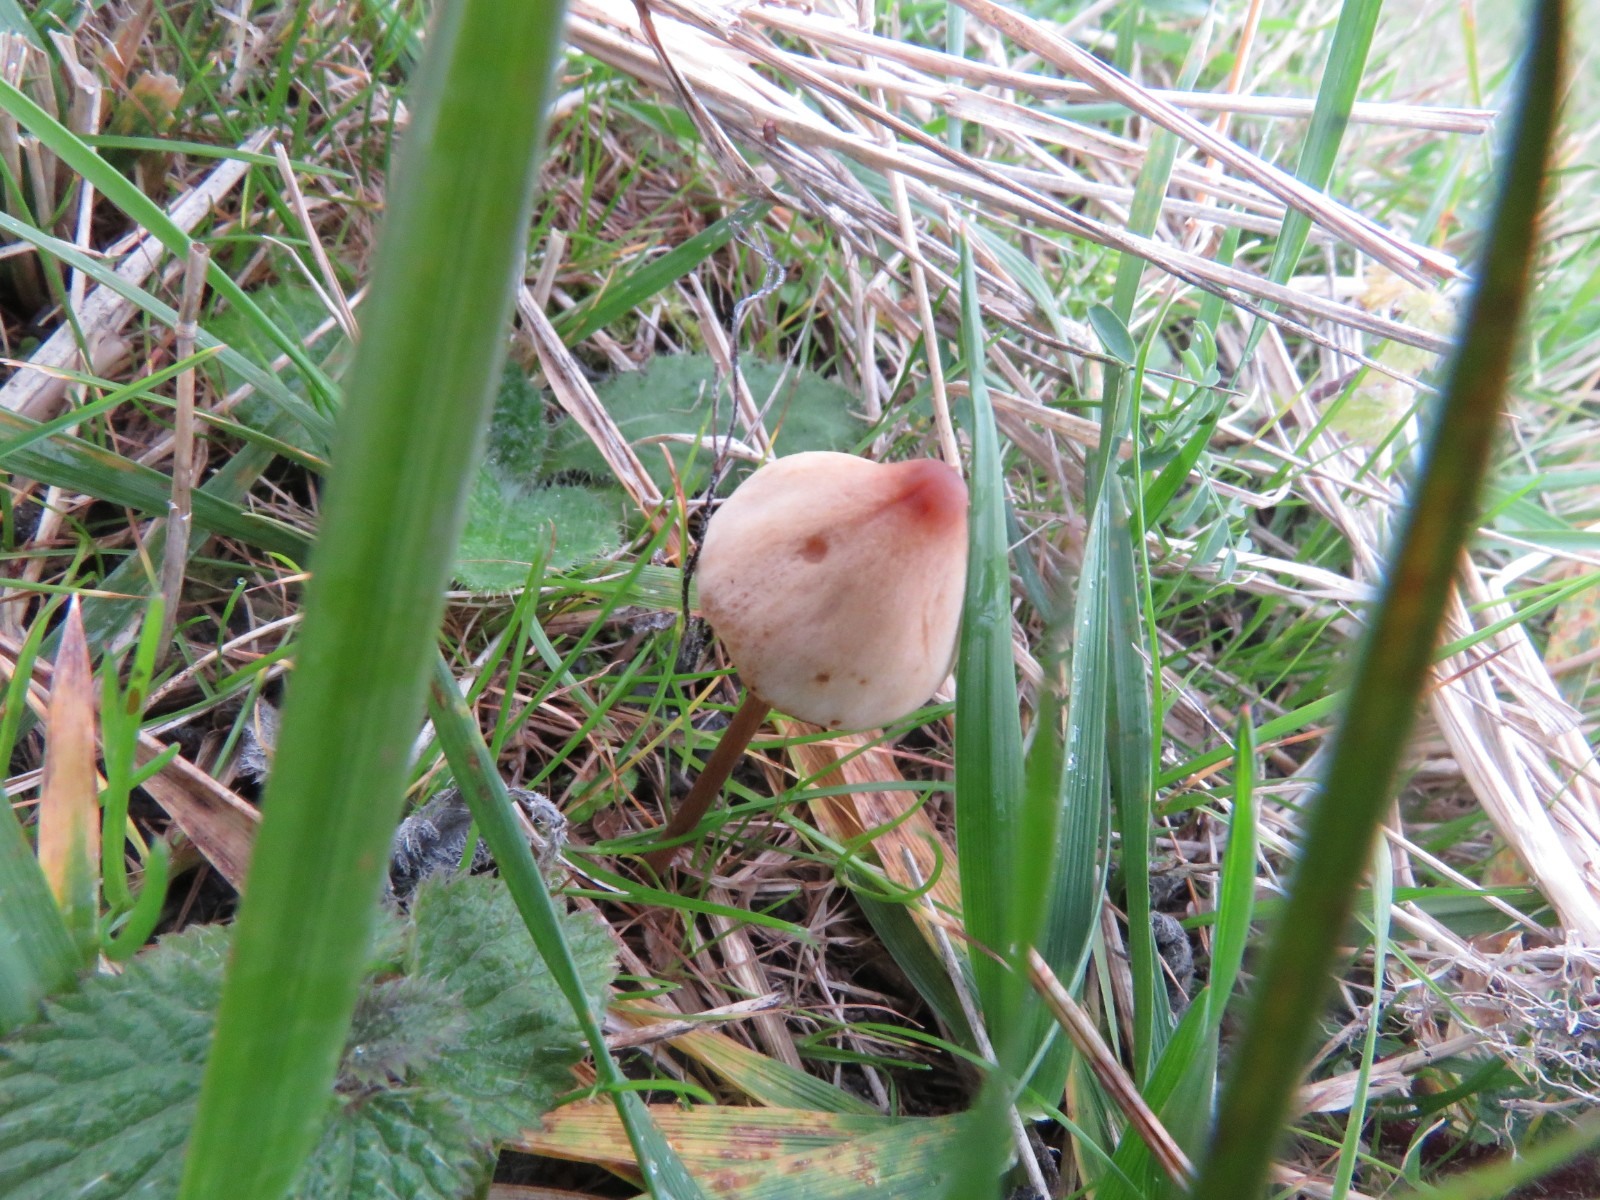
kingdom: Fungi
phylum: Basidiomycota
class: Agaricomycetes
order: Agaricales
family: Bolbitiaceae
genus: Conocybe
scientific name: Conocybe
